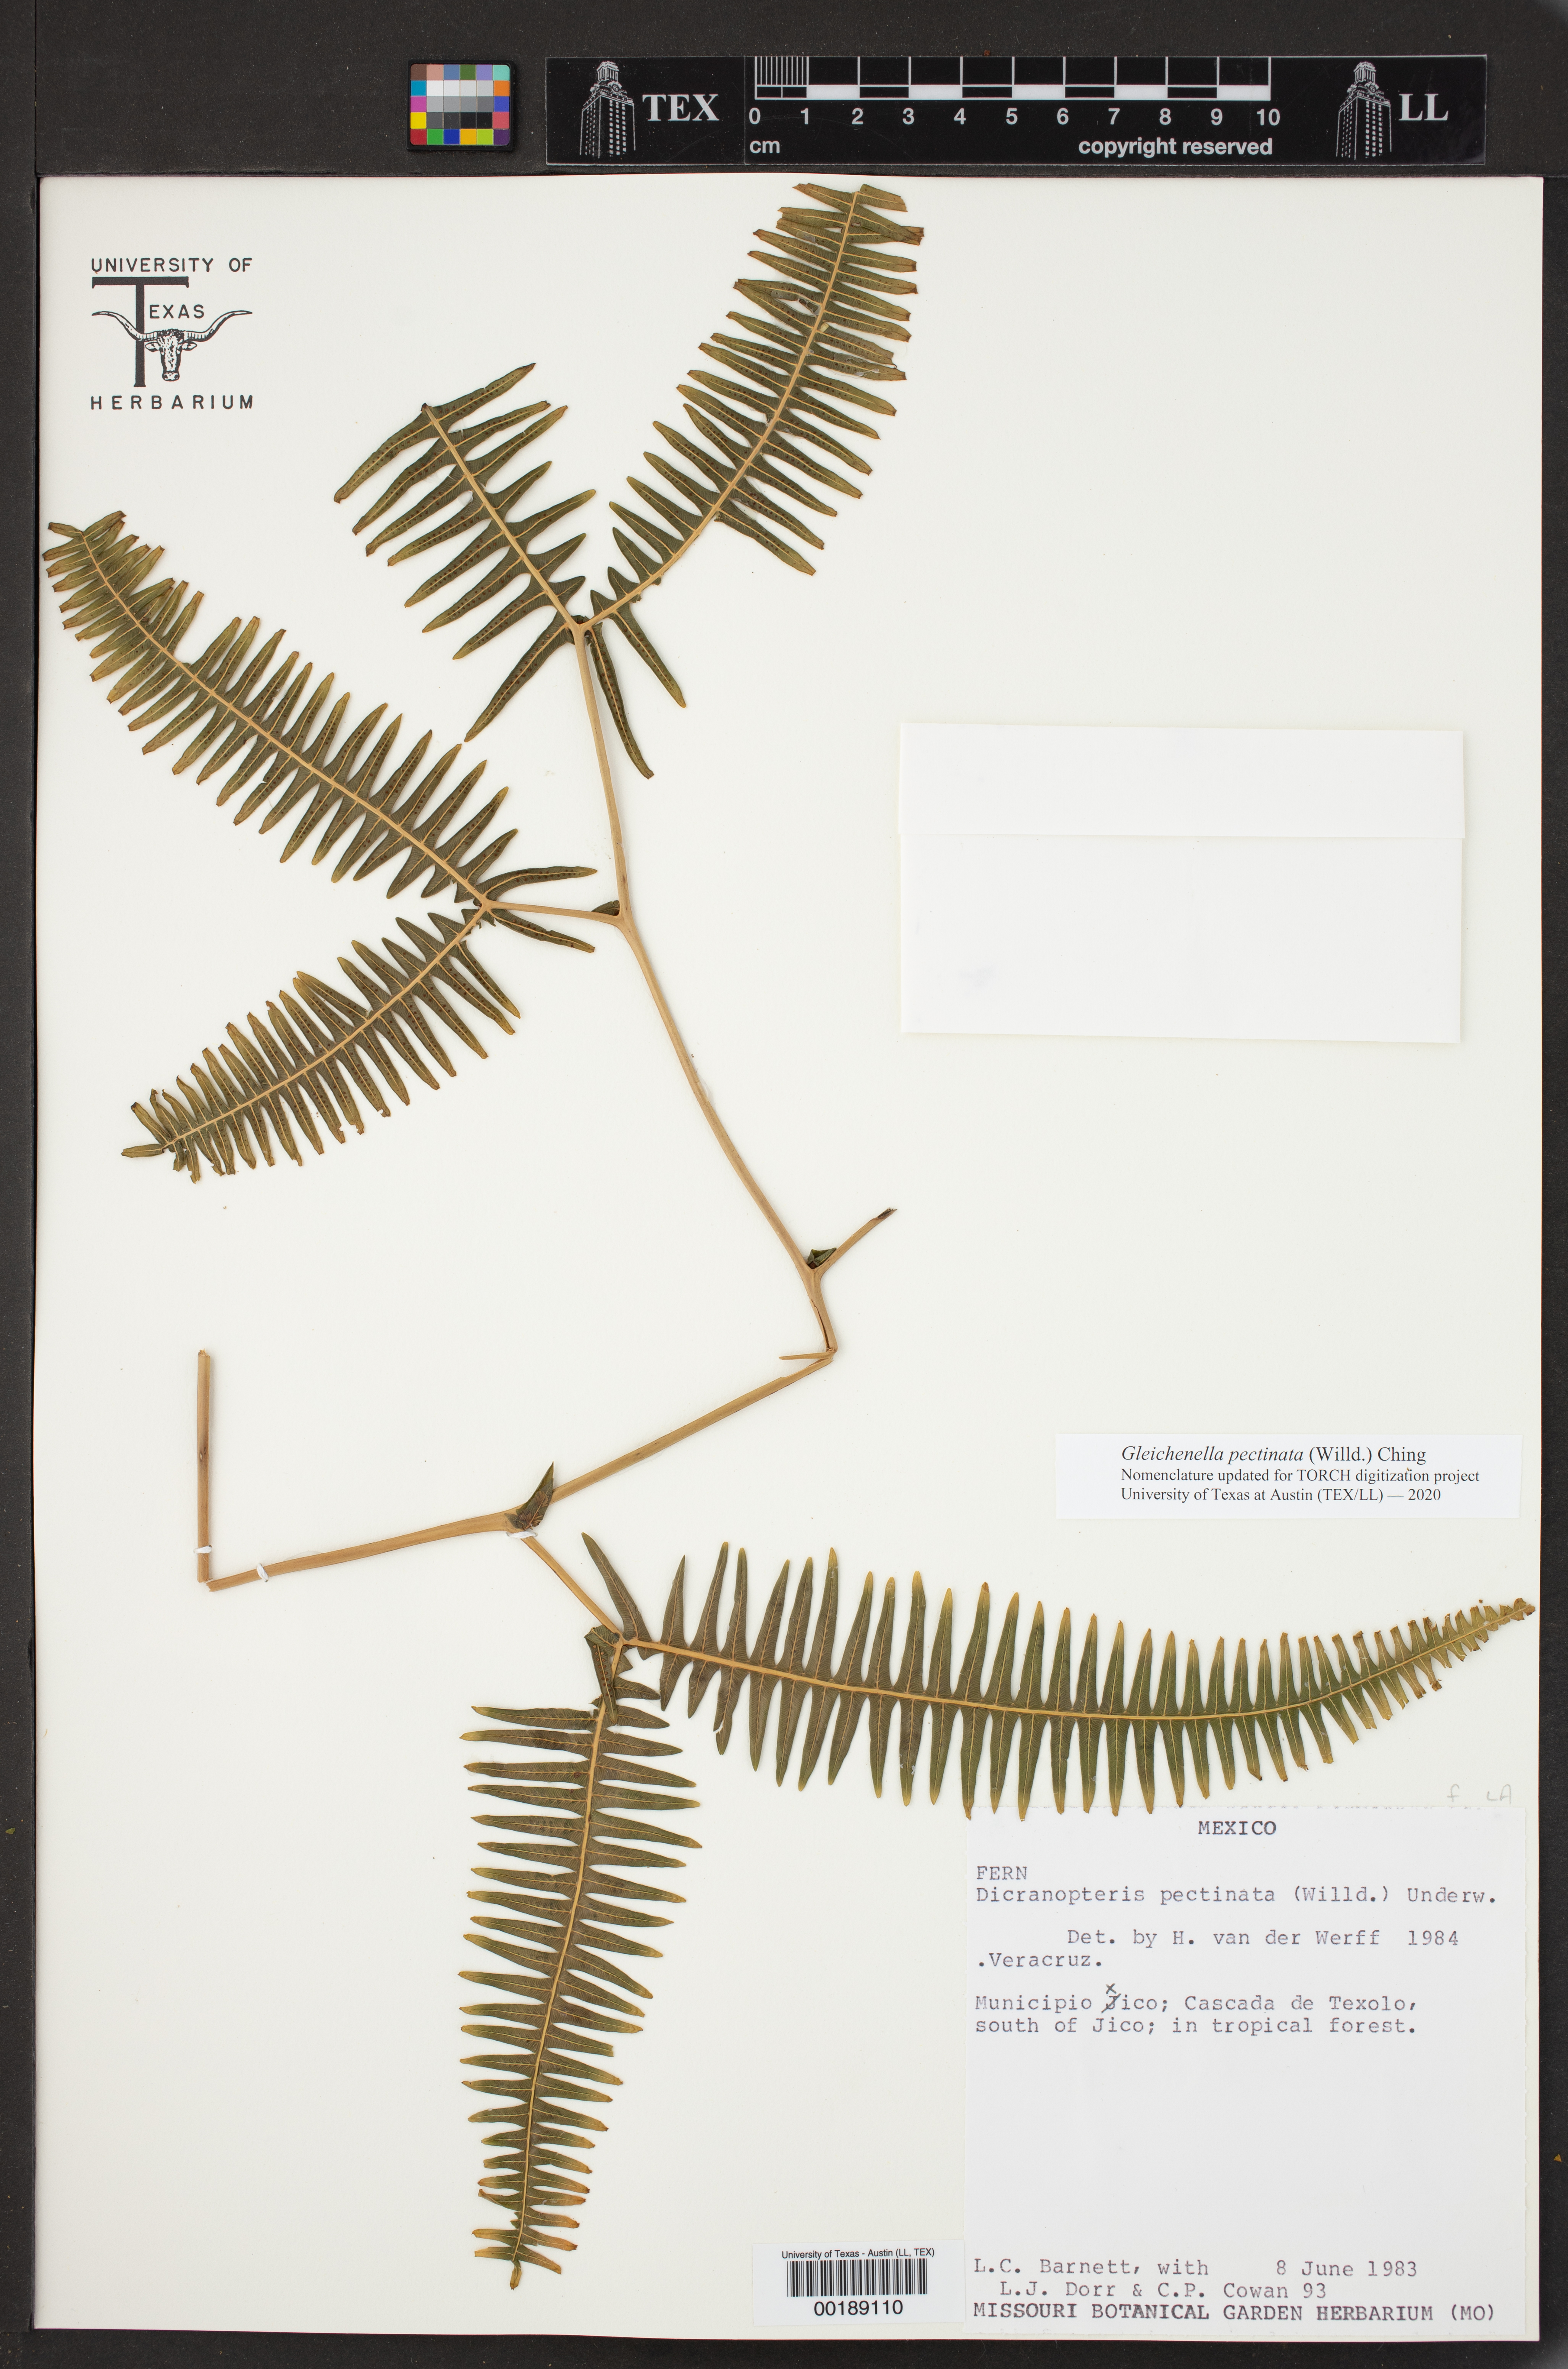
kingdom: Plantae
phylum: Tracheophyta
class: Polypodiopsida
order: Gleicheniales
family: Gleicheniaceae
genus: Gleichenella
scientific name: Gleichenella pectinata
